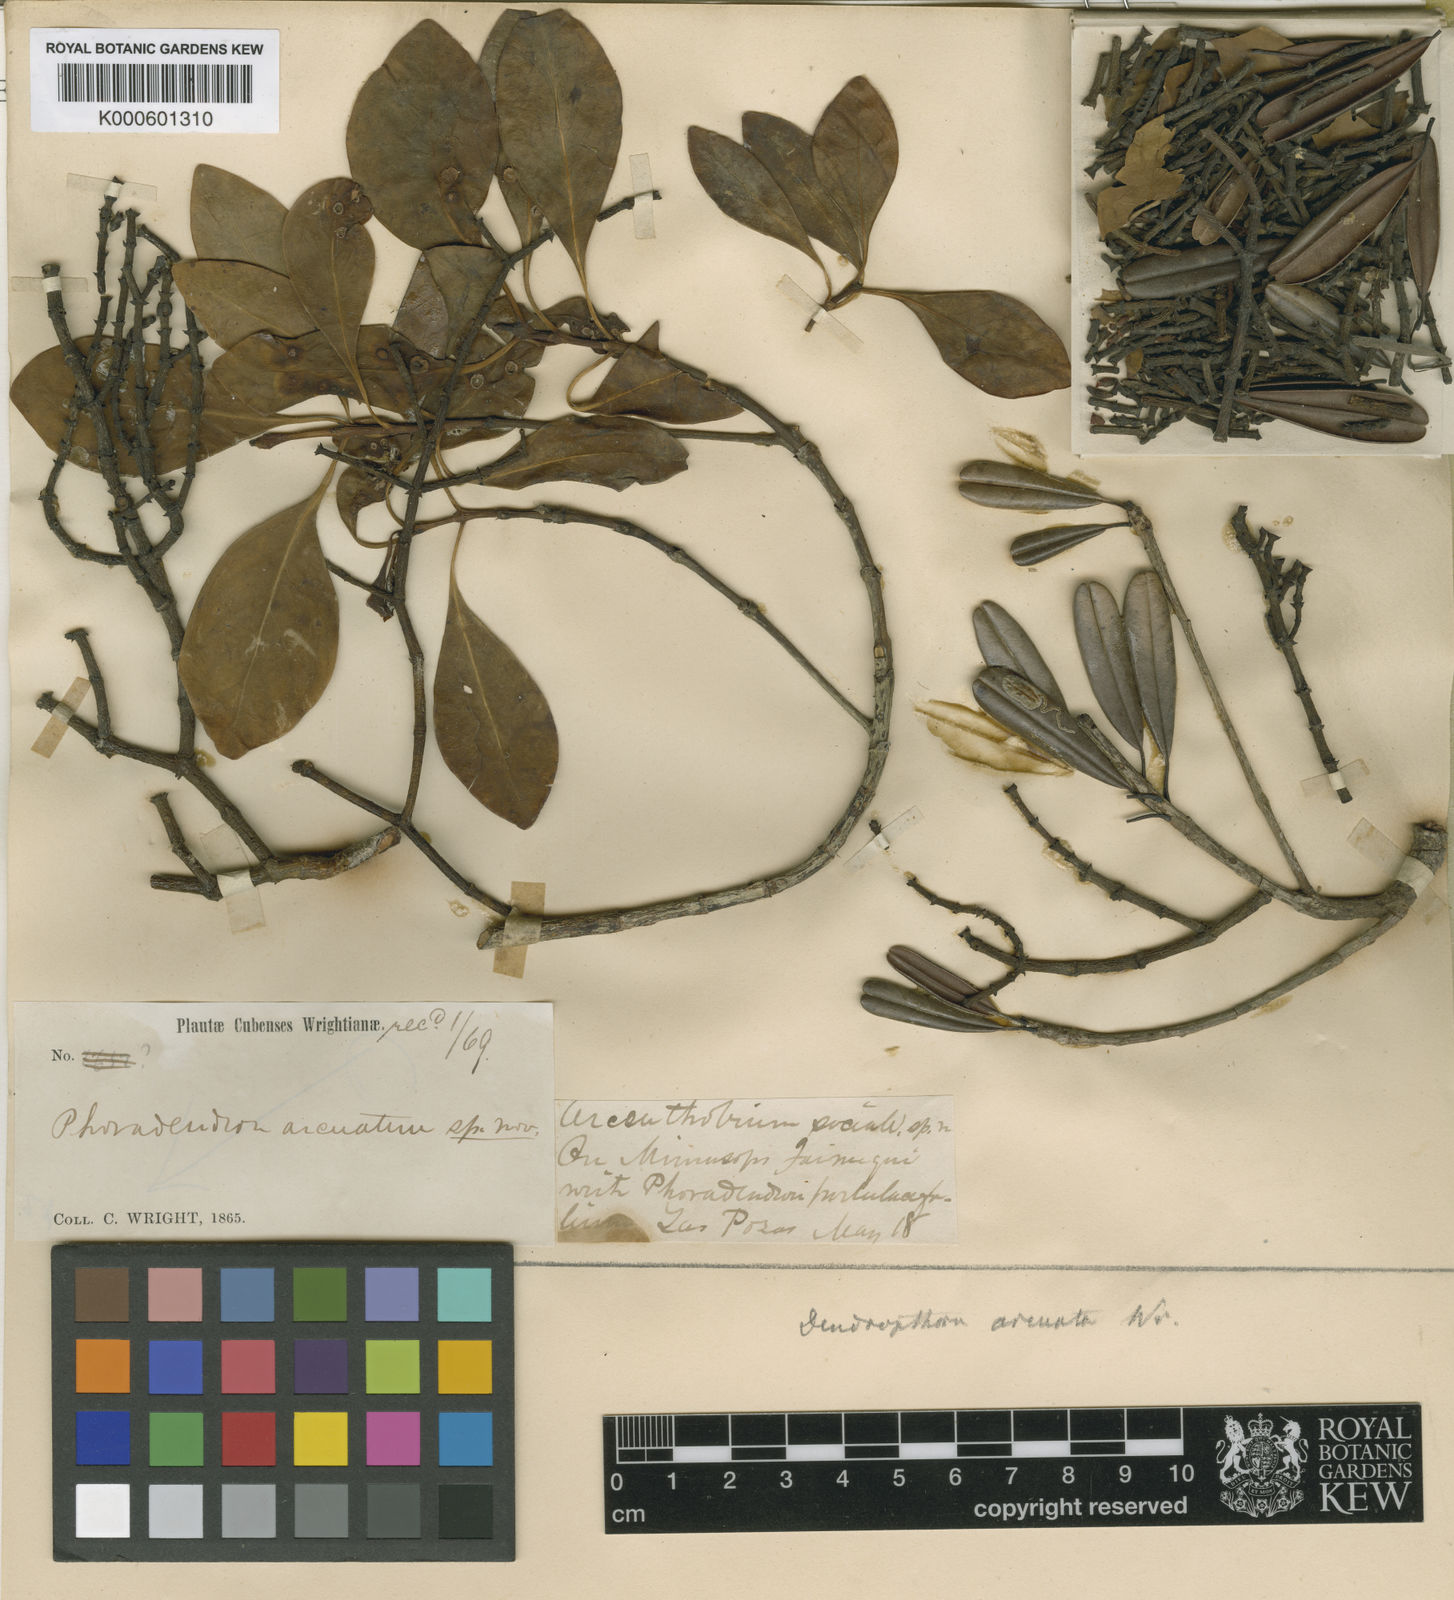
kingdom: Plantae
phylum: Tracheophyta
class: Magnoliopsida
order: Santalales
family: Viscaceae
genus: Dendrophthora
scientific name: Dendrophthora arcuata
